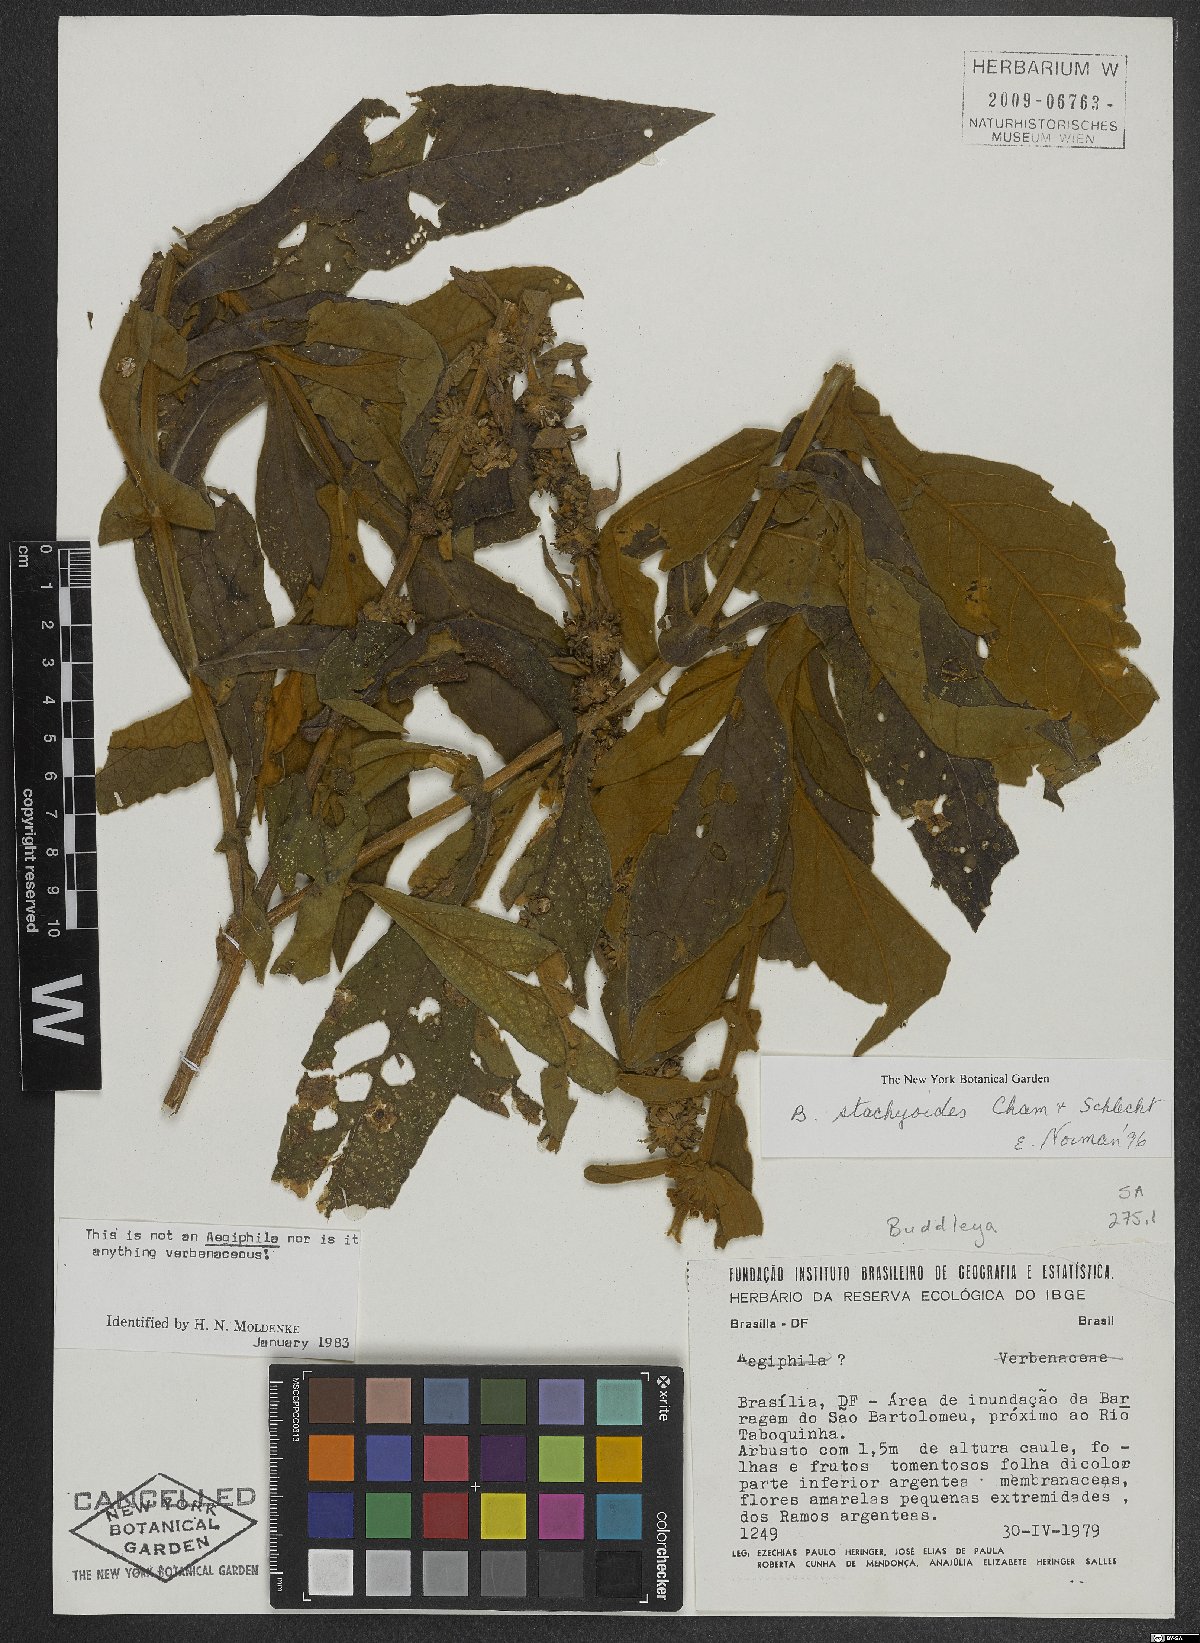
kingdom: Plantae
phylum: Tracheophyta
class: Magnoliopsida
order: Lamiales
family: Scrophulariaceae
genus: Buddleja
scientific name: Buddleja stachyoides
